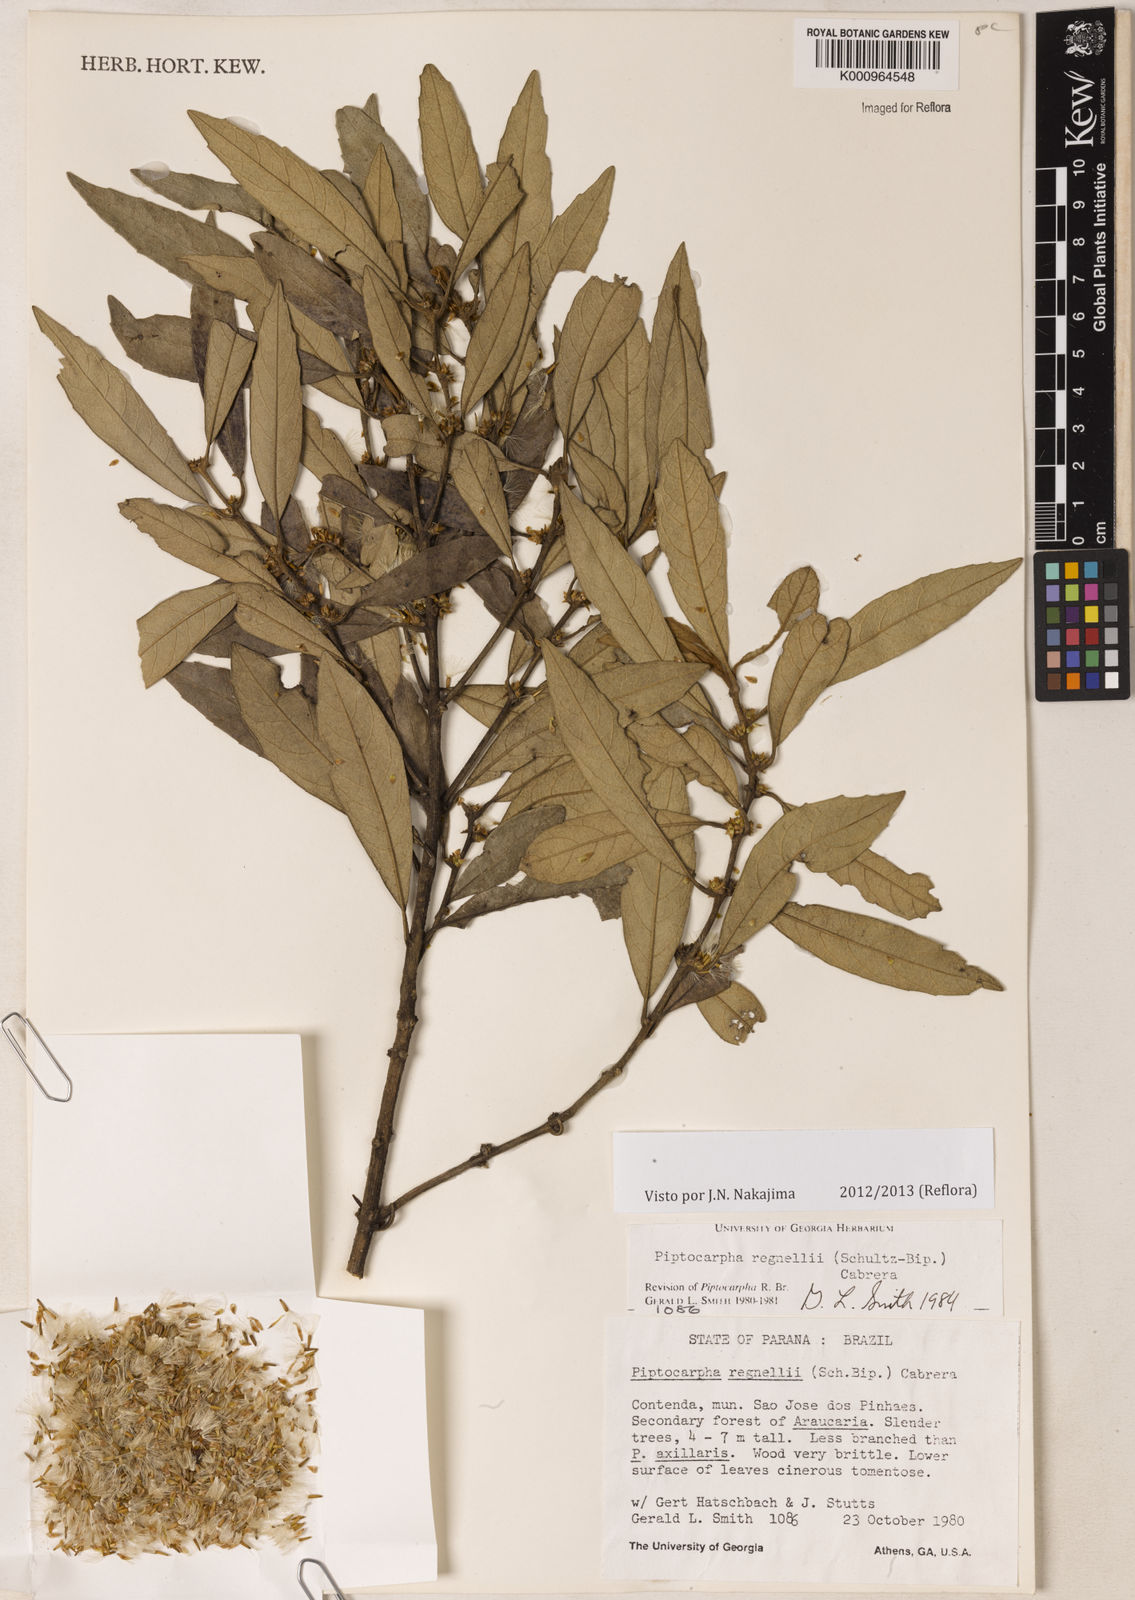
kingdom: Plantae
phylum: Tracheophyta
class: Magnoliopsida
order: Asterales
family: Asteraceae
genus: Piptocarpha
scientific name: Piptocarpha regnellii
